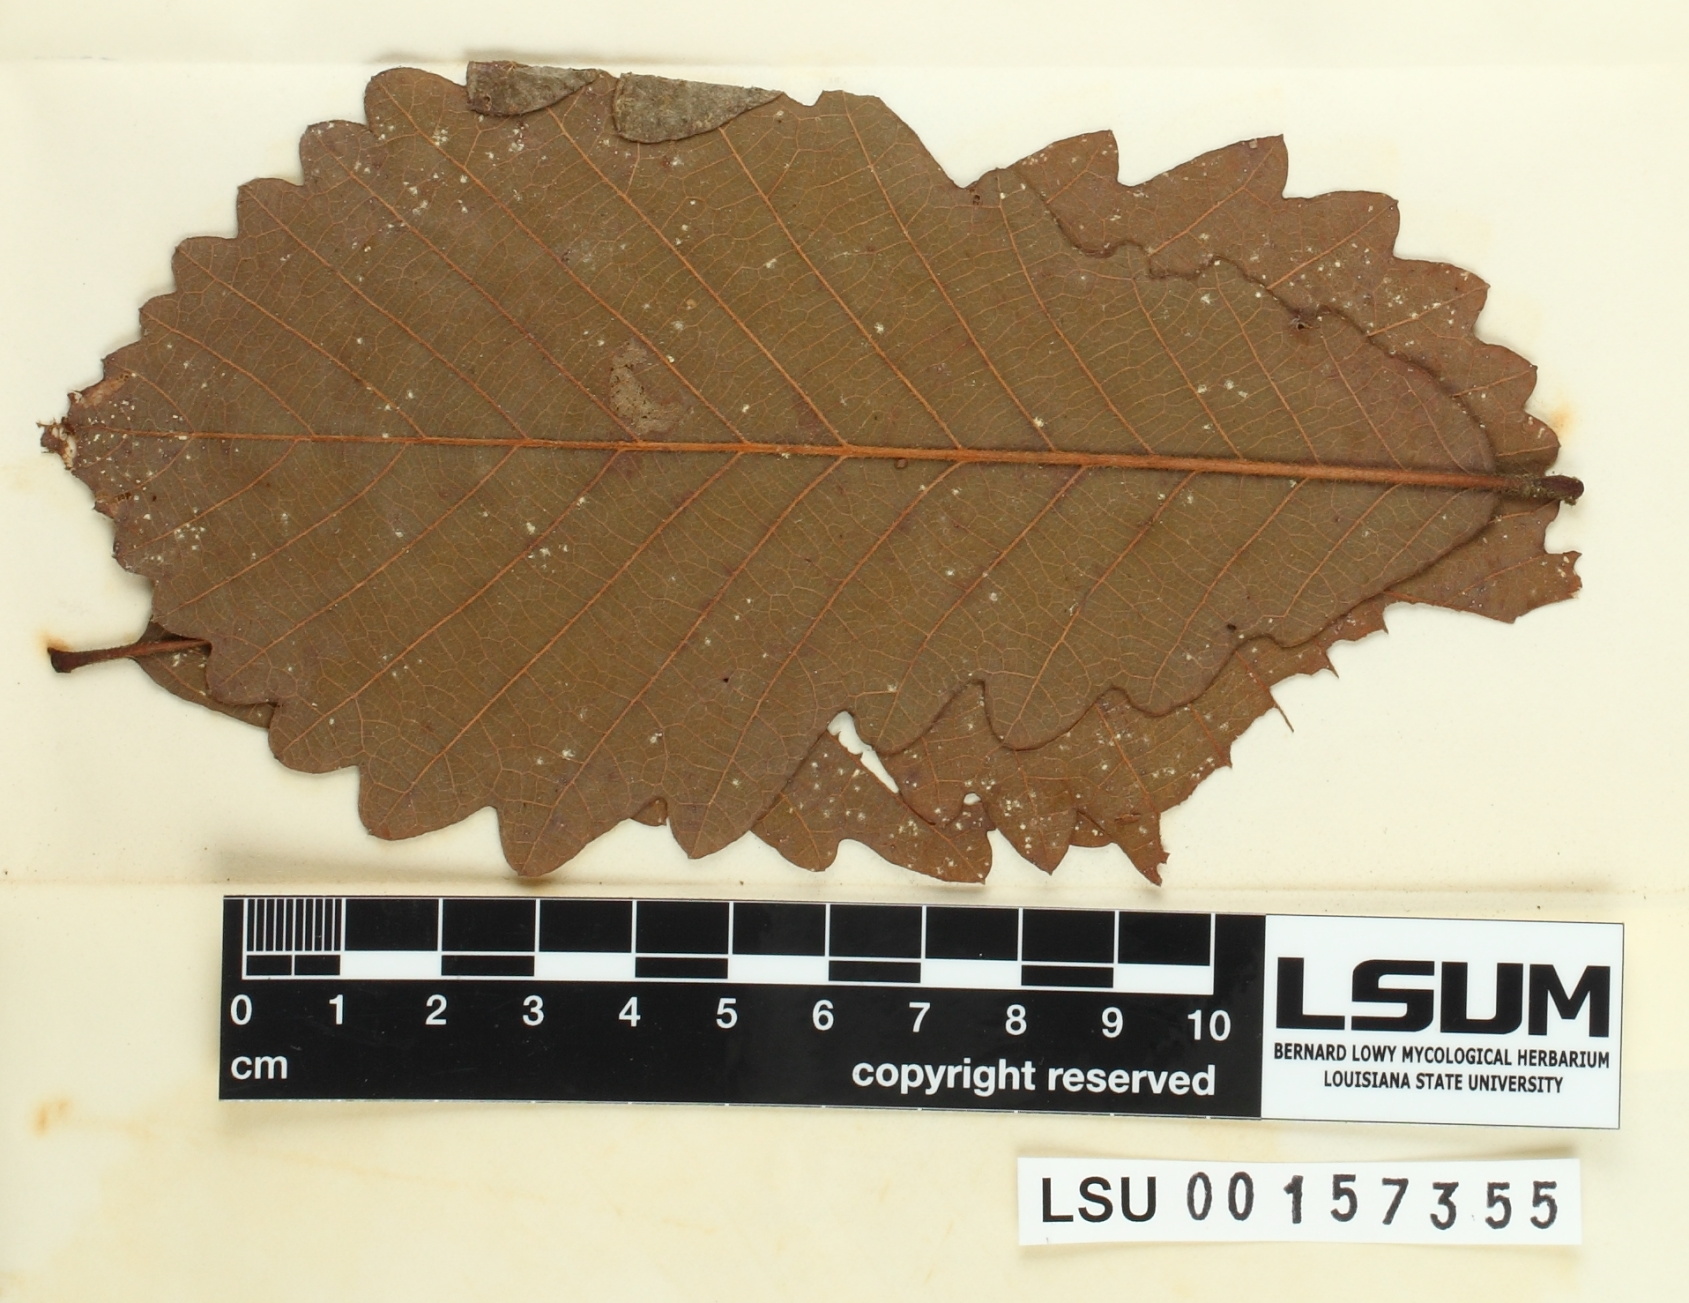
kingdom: Fungi
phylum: Ascomycota
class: Dothideomycetes
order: Myriangiales
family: Cookellaceae
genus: Cookella
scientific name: Cookella
